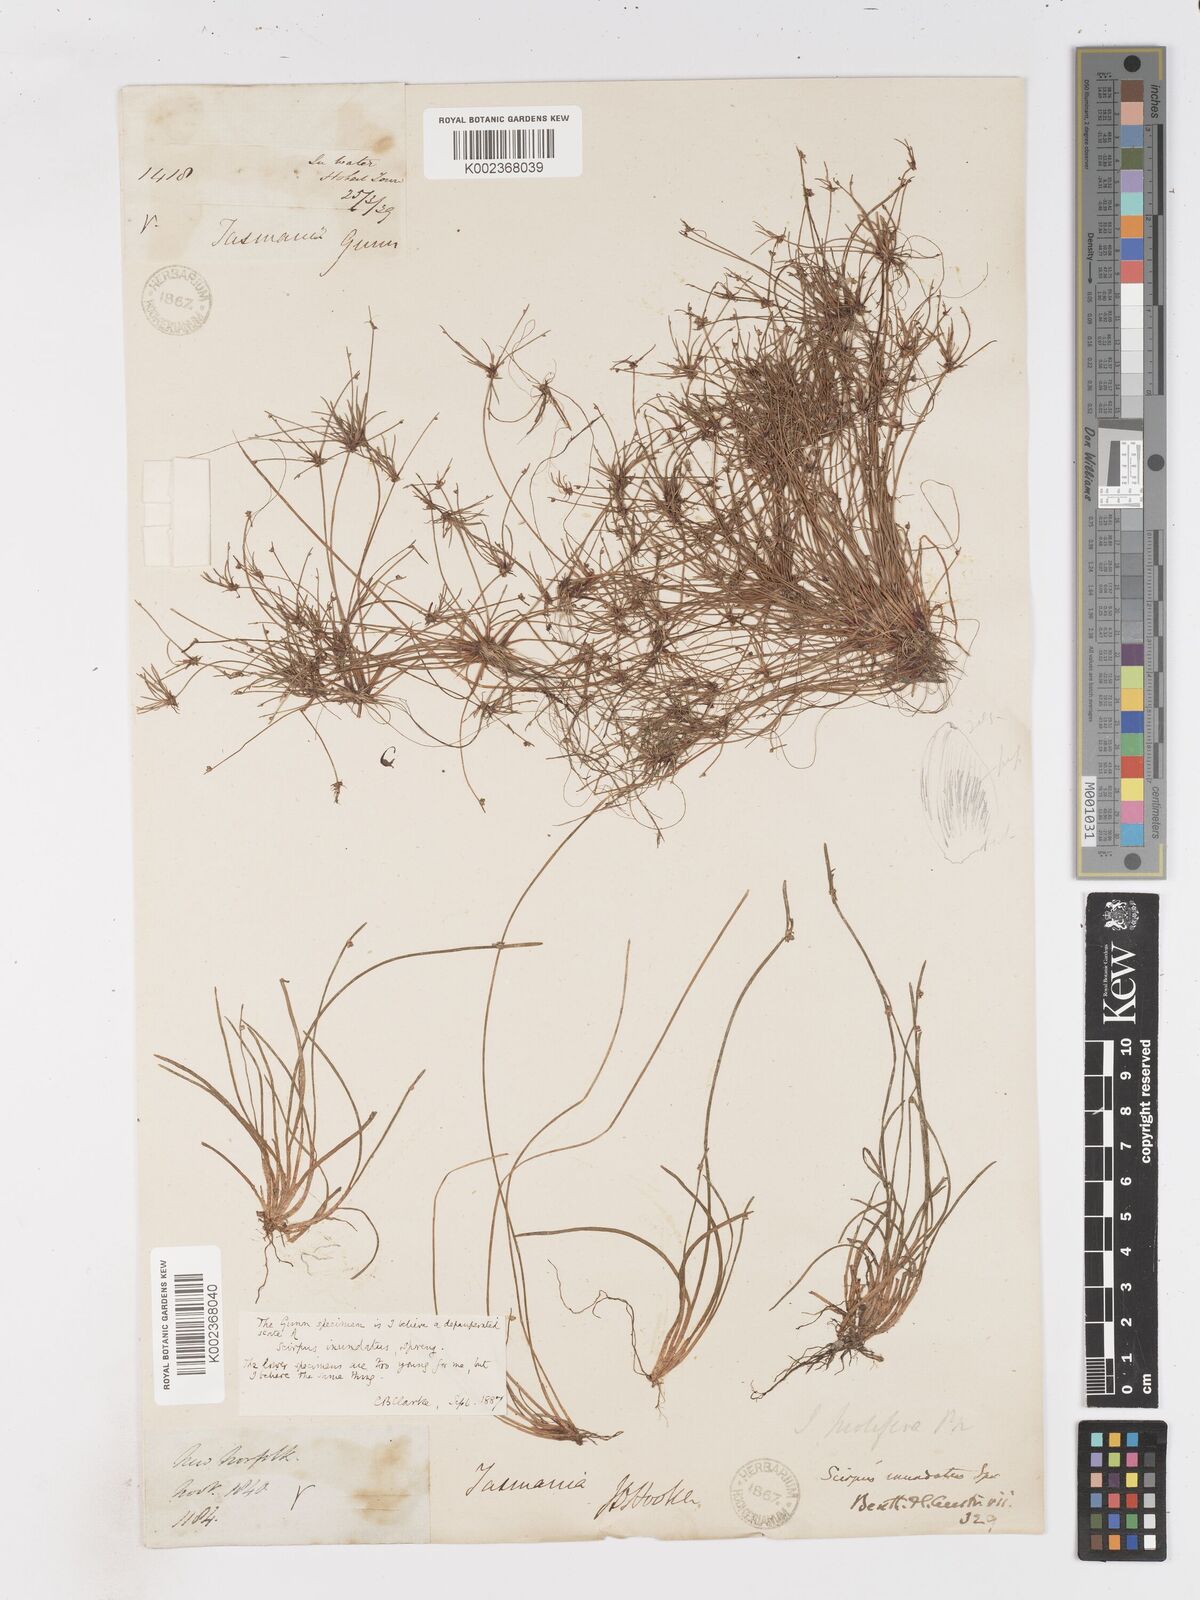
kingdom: Plantae
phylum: Tracheophyta
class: Liliopsida
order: Poales
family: Cyperaceae
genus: Isolepis
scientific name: Isolepis inundata
